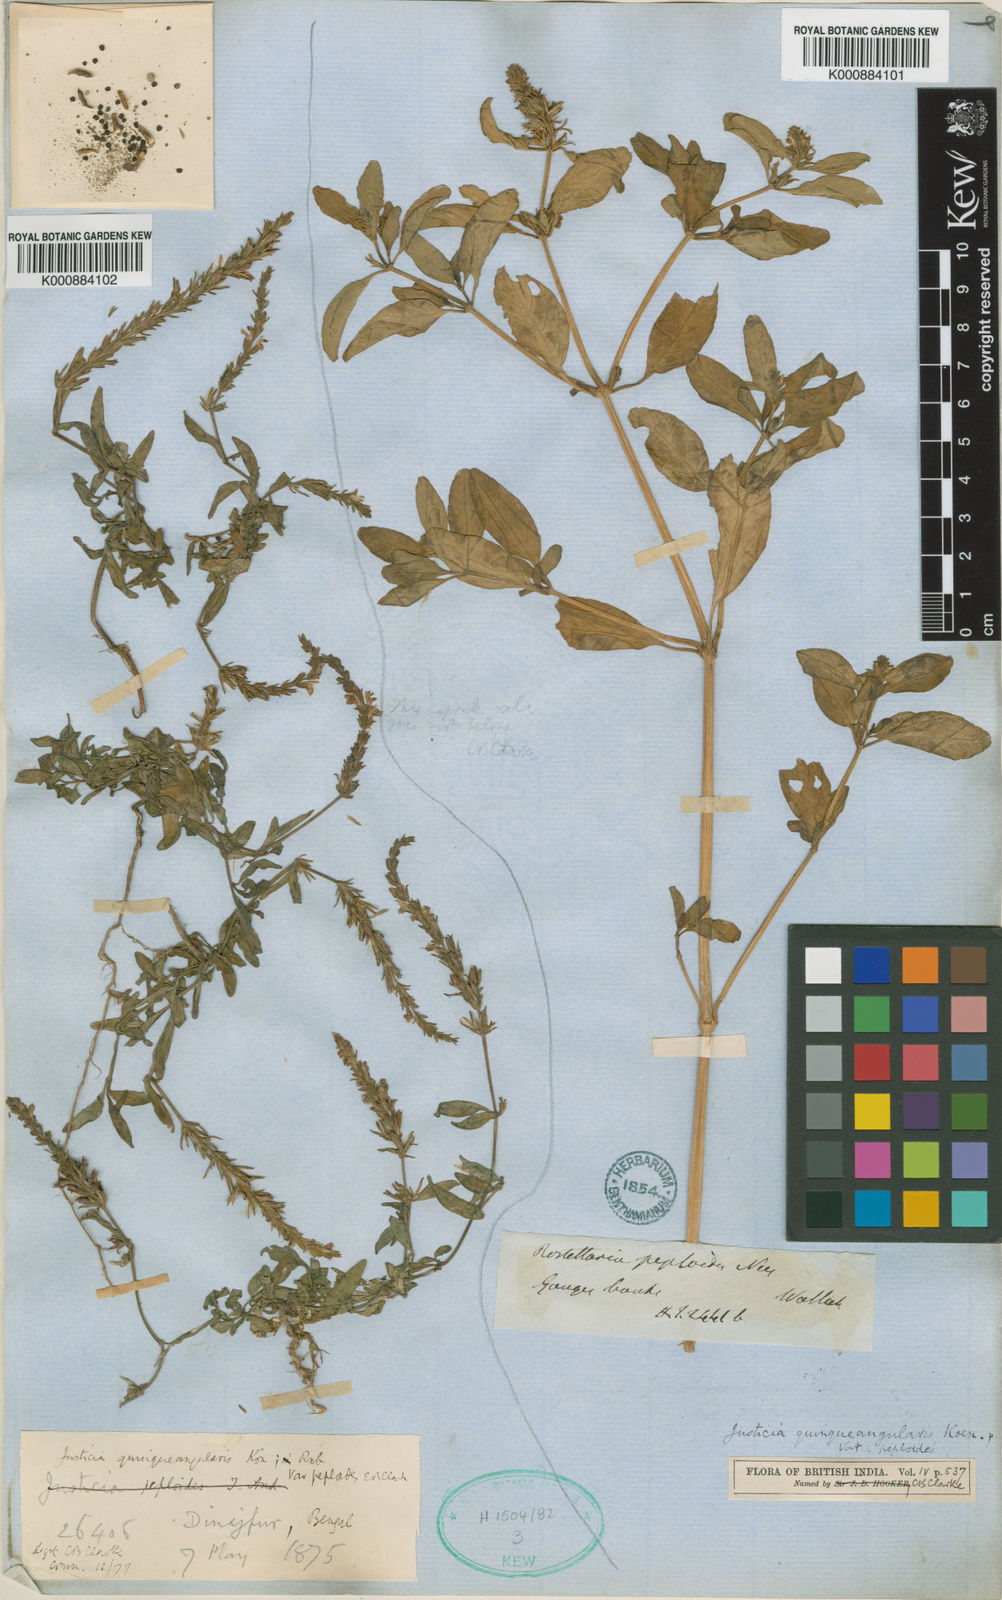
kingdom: Plantae
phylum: Tracheophyta
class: Magnoliopsida
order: Lamiales
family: Acanthaceae
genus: Rostellularia
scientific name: Rostellularia quinquangularis
